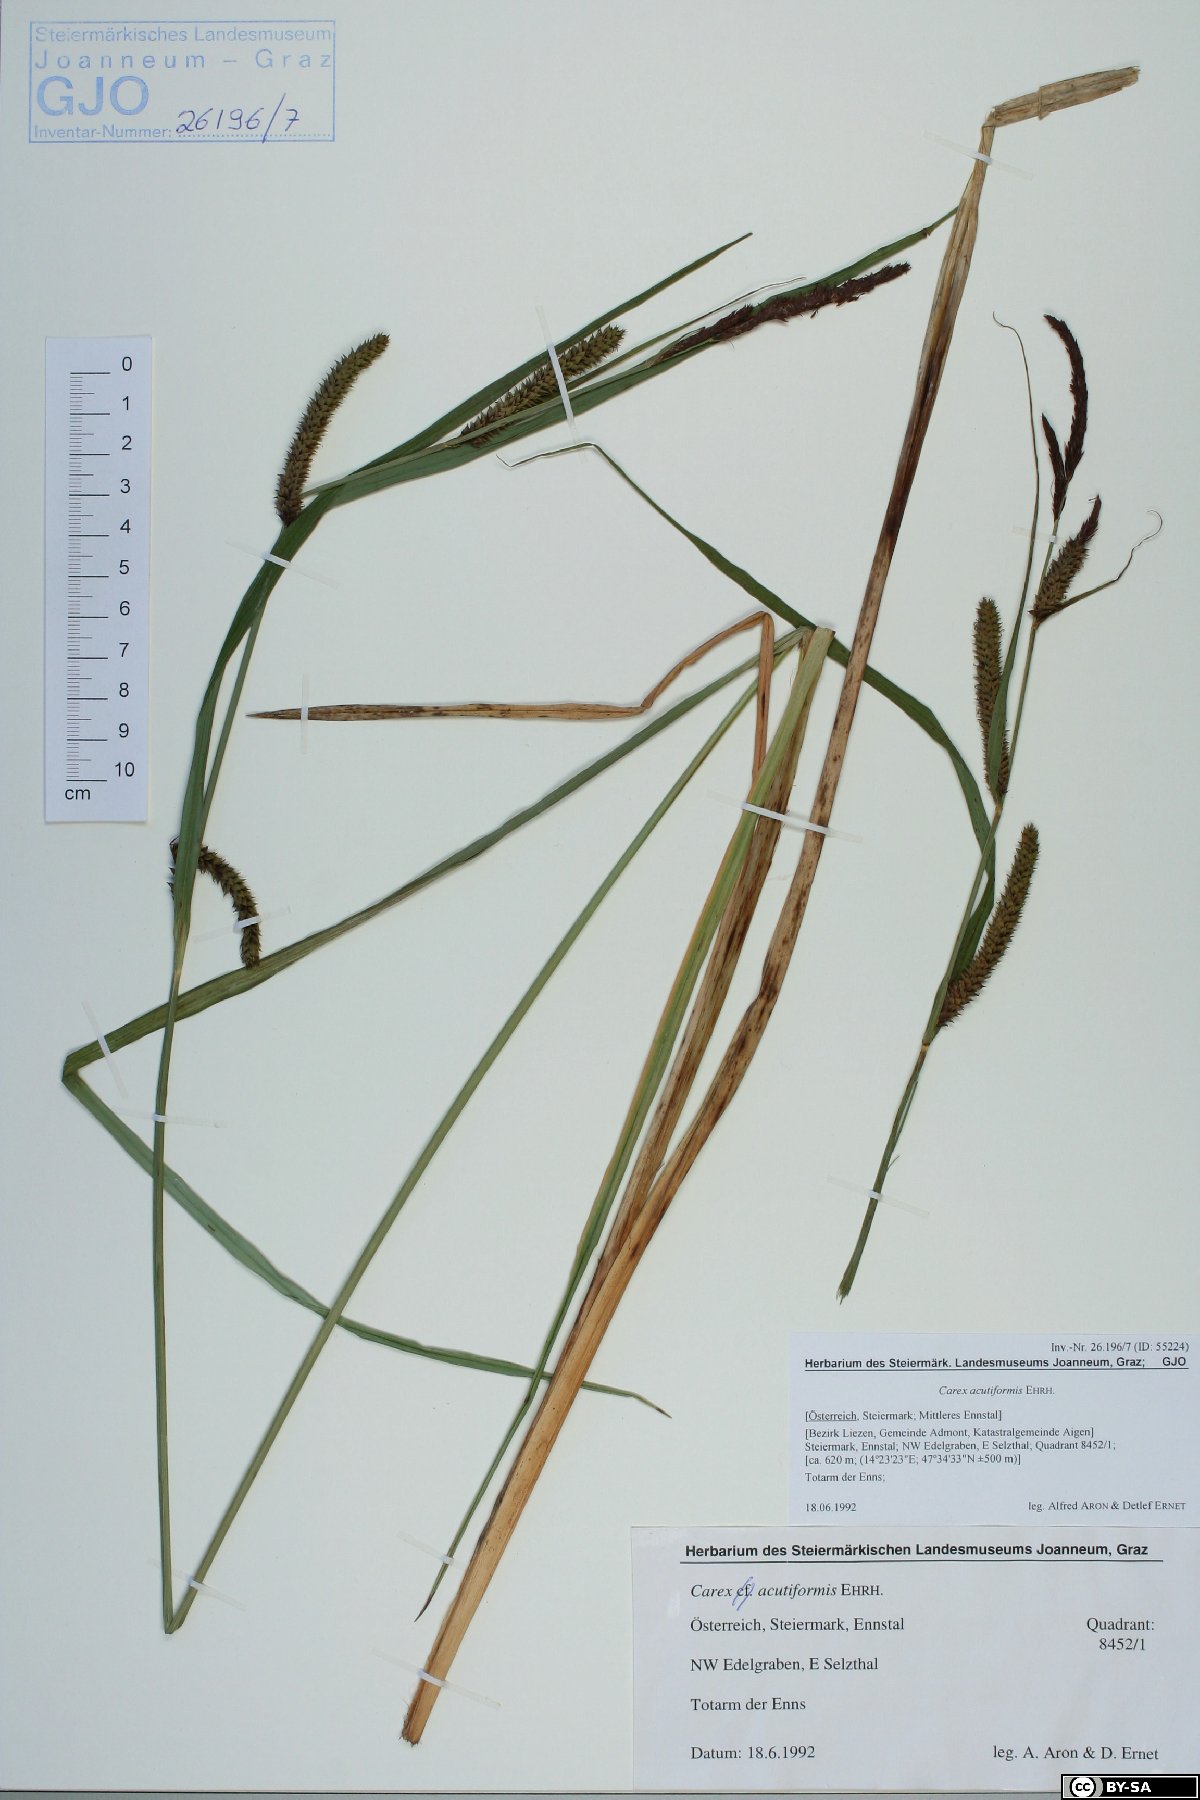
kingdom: Plantae
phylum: Tracheophyta
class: Liliopsida
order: Poales
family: Cyperaceae
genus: Carex
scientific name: Carex acutiformis
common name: Lesser pond-sedge
